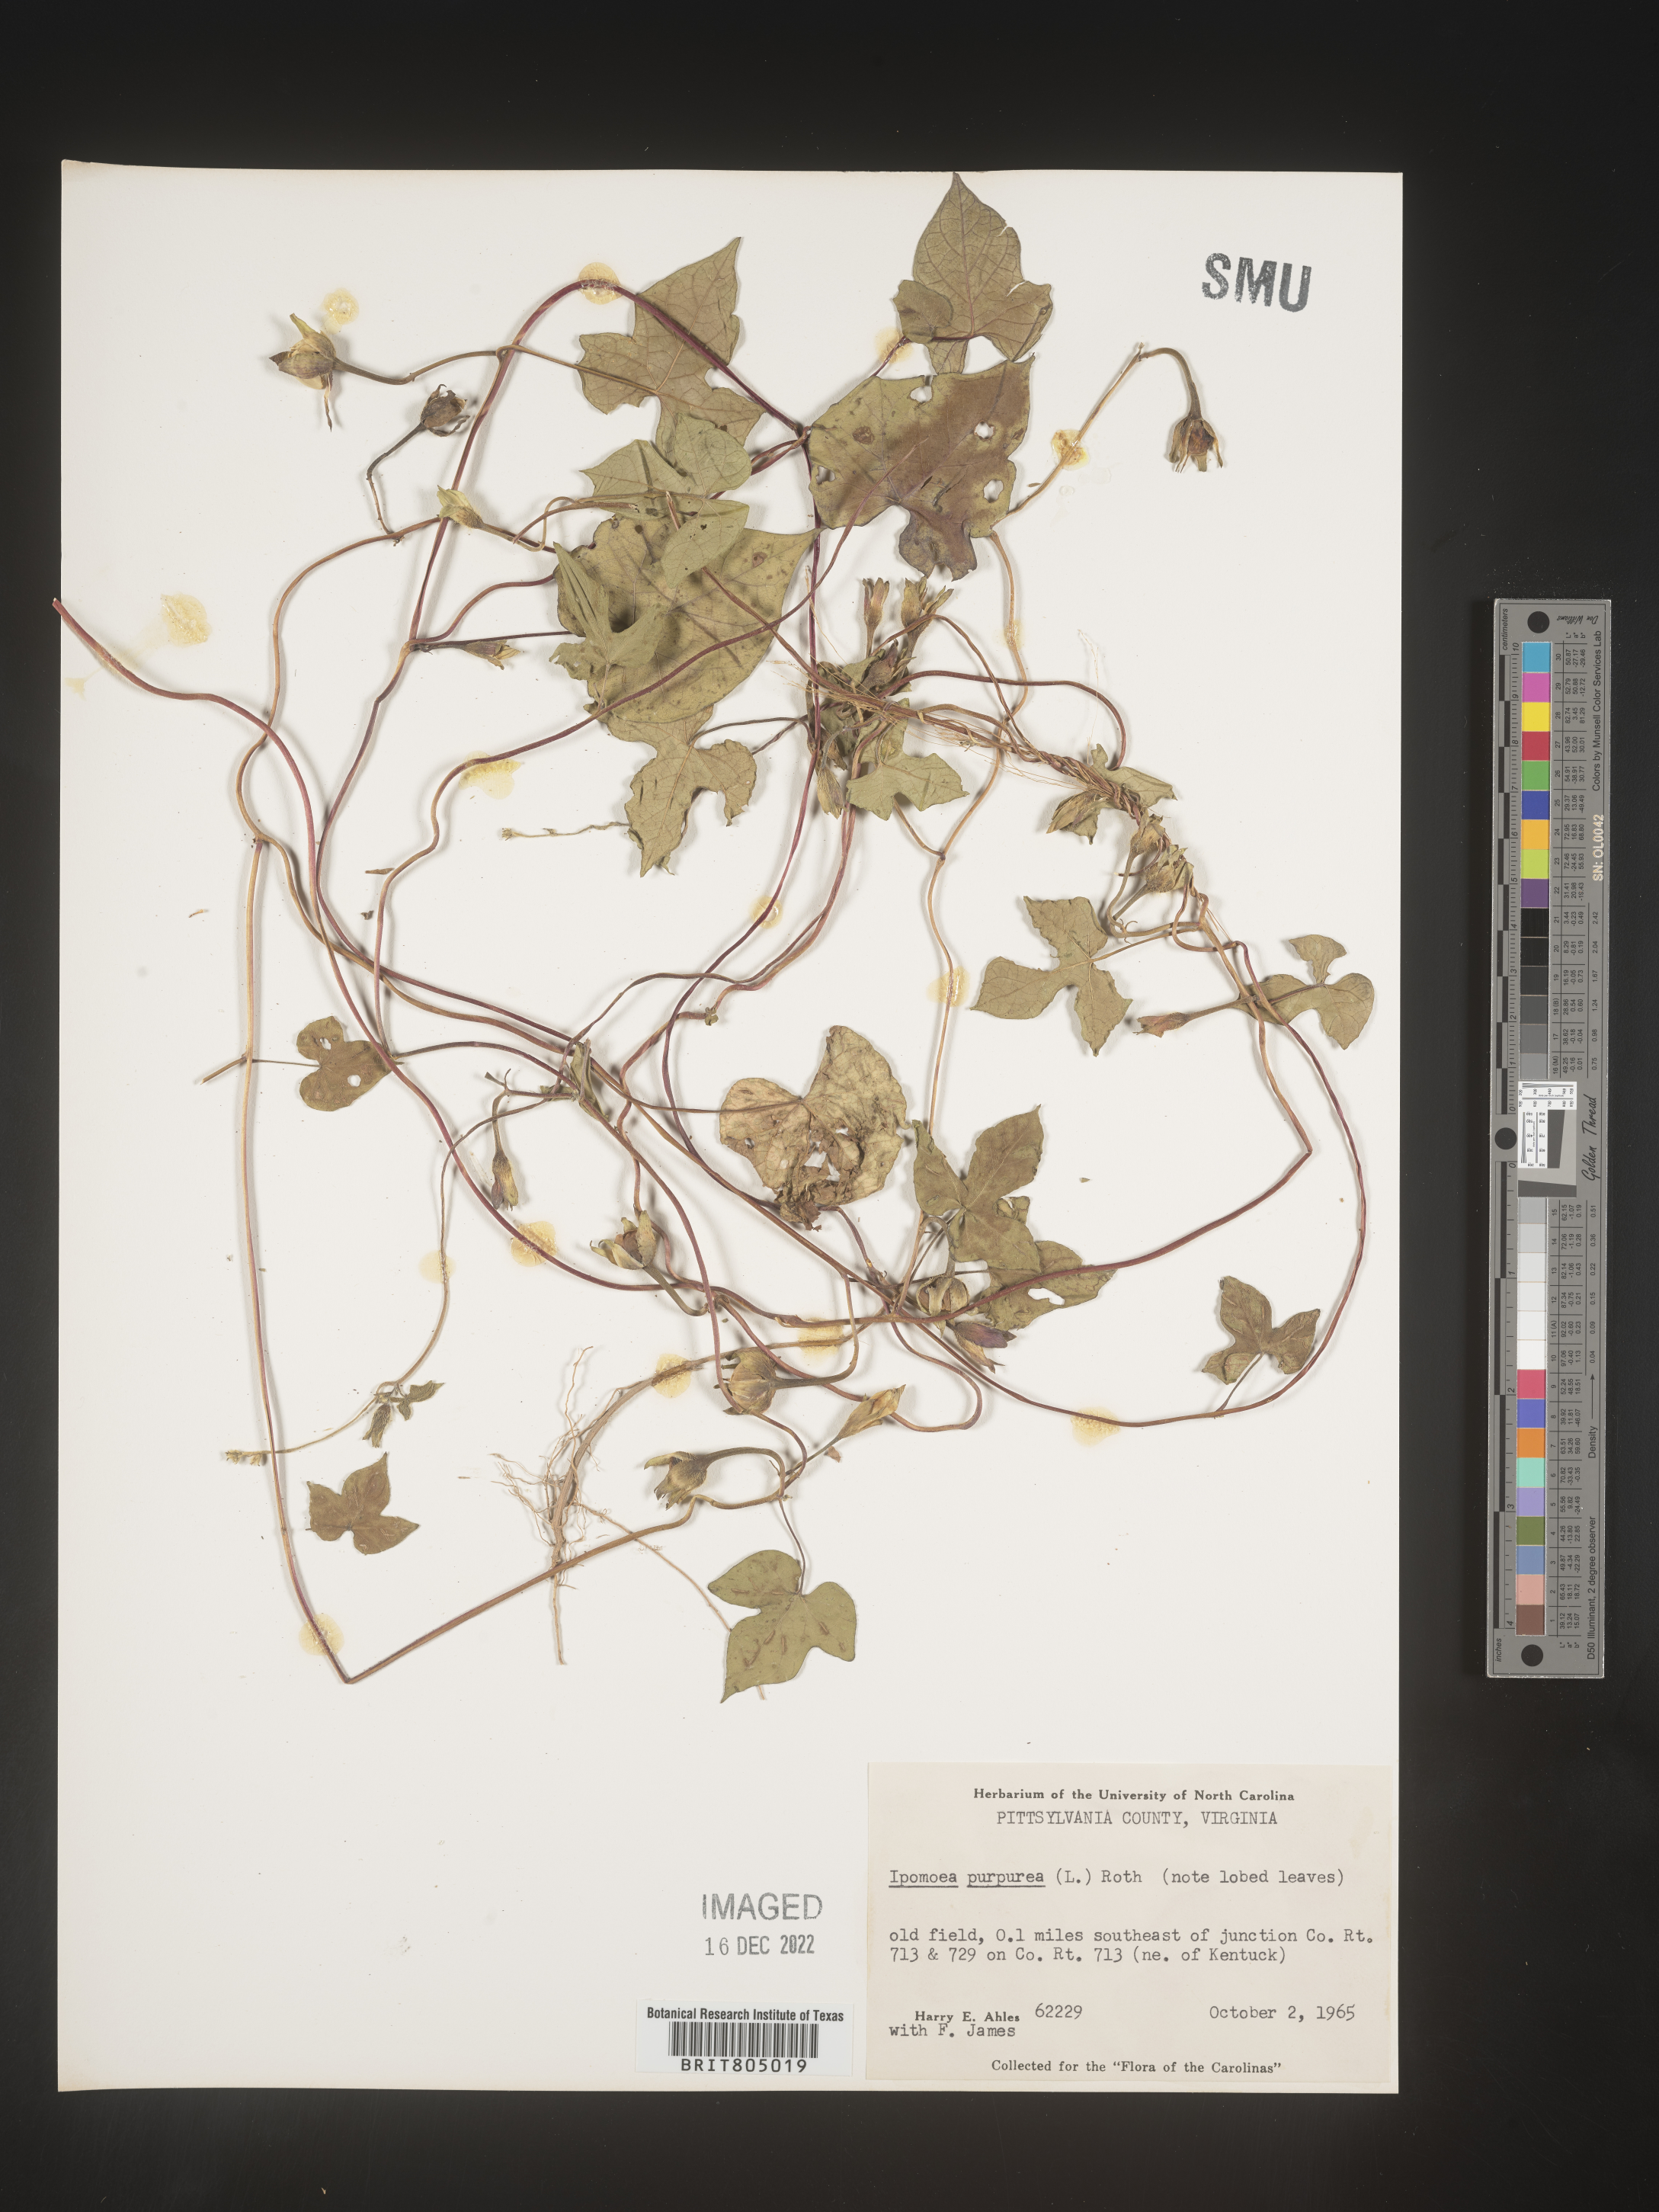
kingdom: Plantae
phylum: Tracheophyta
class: Magnoliopsida
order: Solanales
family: Convolvulaceae
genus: Ipomoea
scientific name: Ipomoea purpurea
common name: Common morning-glory
